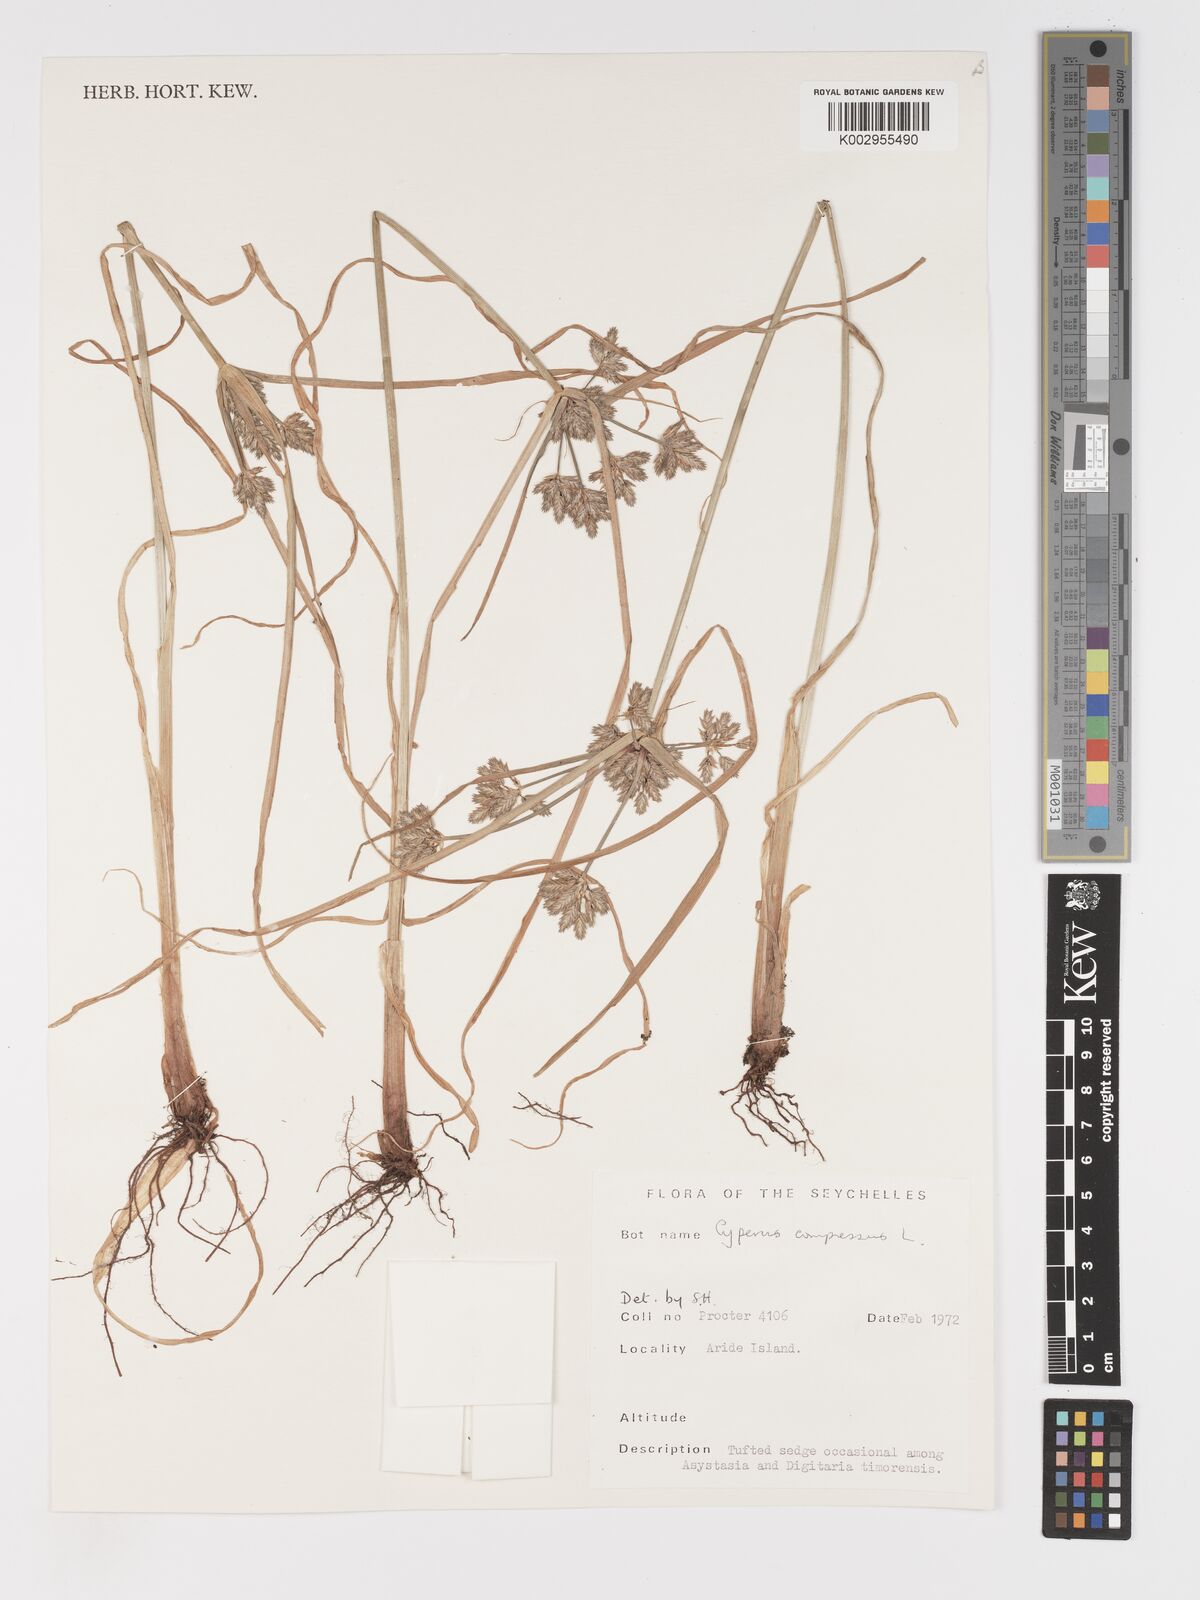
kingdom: Plantae
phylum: Tracheophyta
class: Liliopsida
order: Poales
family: Cyperaceae
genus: Cyperus
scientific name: Cyperus compressus
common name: Poorland flatsedge
